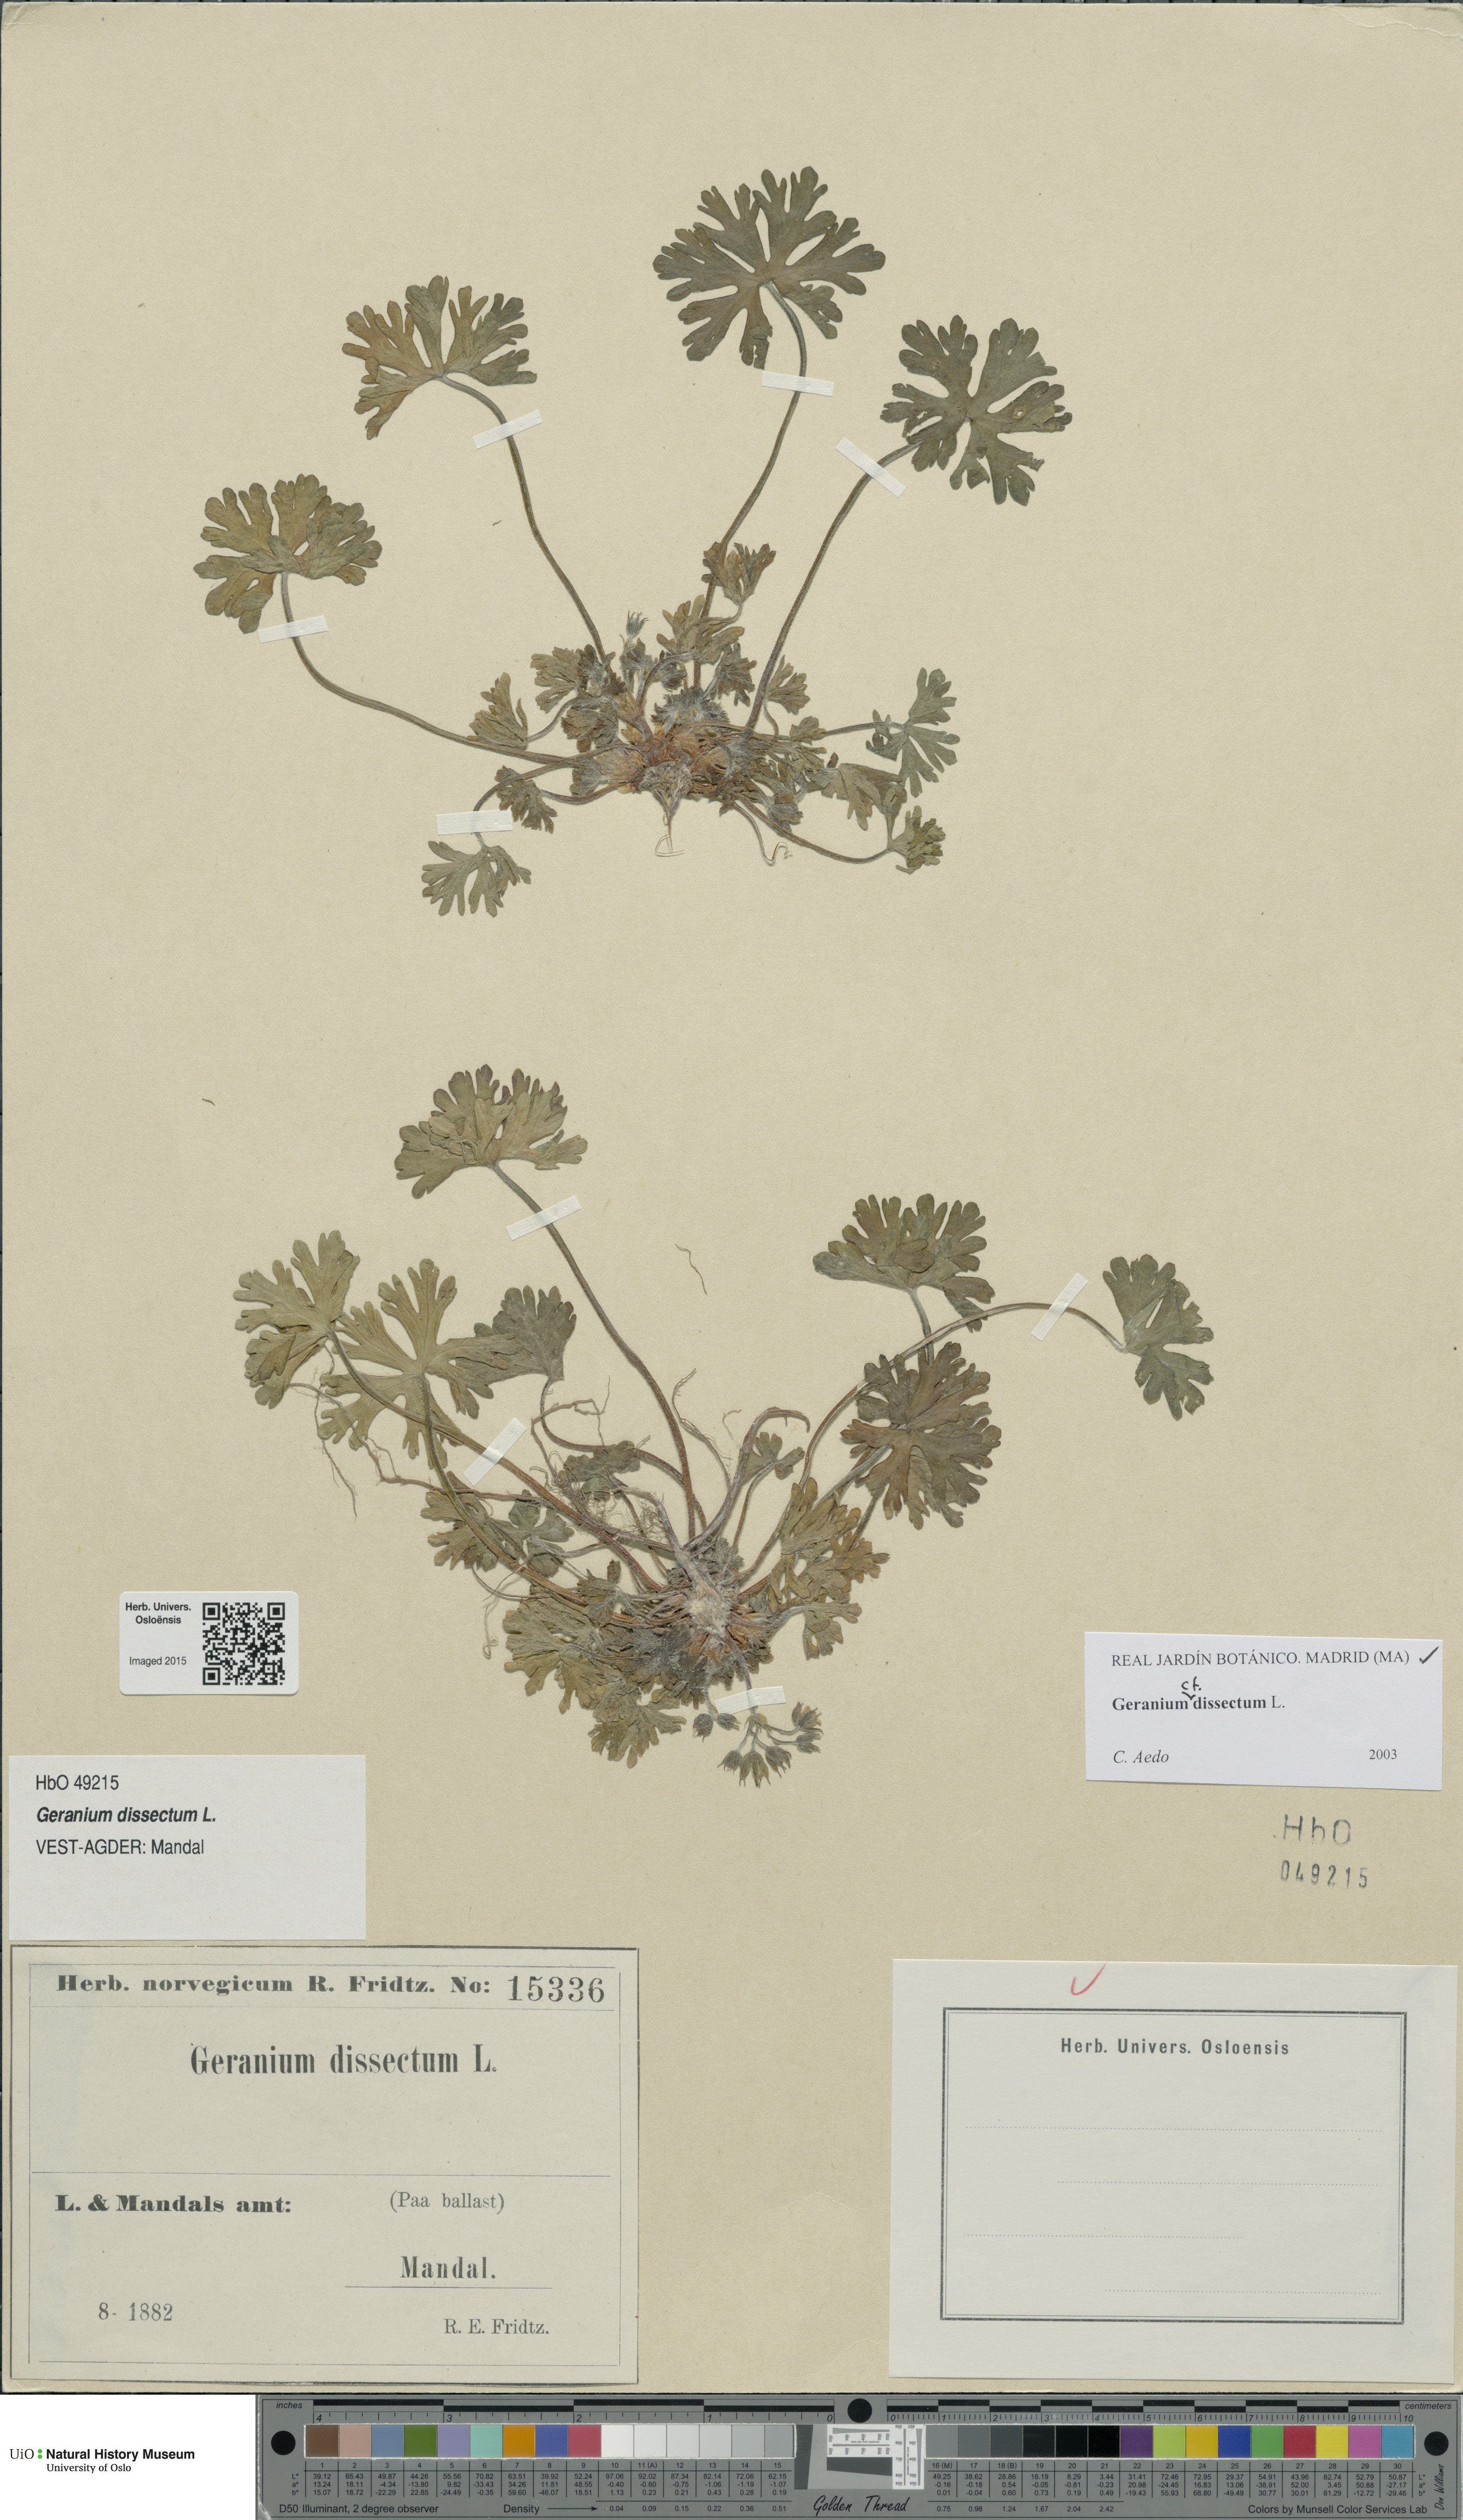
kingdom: Plantae
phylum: Tracheophyta
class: Magnoliopsida
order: Geraniales
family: Geraniaceae
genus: Geranium
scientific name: Geranium dissectum
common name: Cut-leaved crane's-bill
